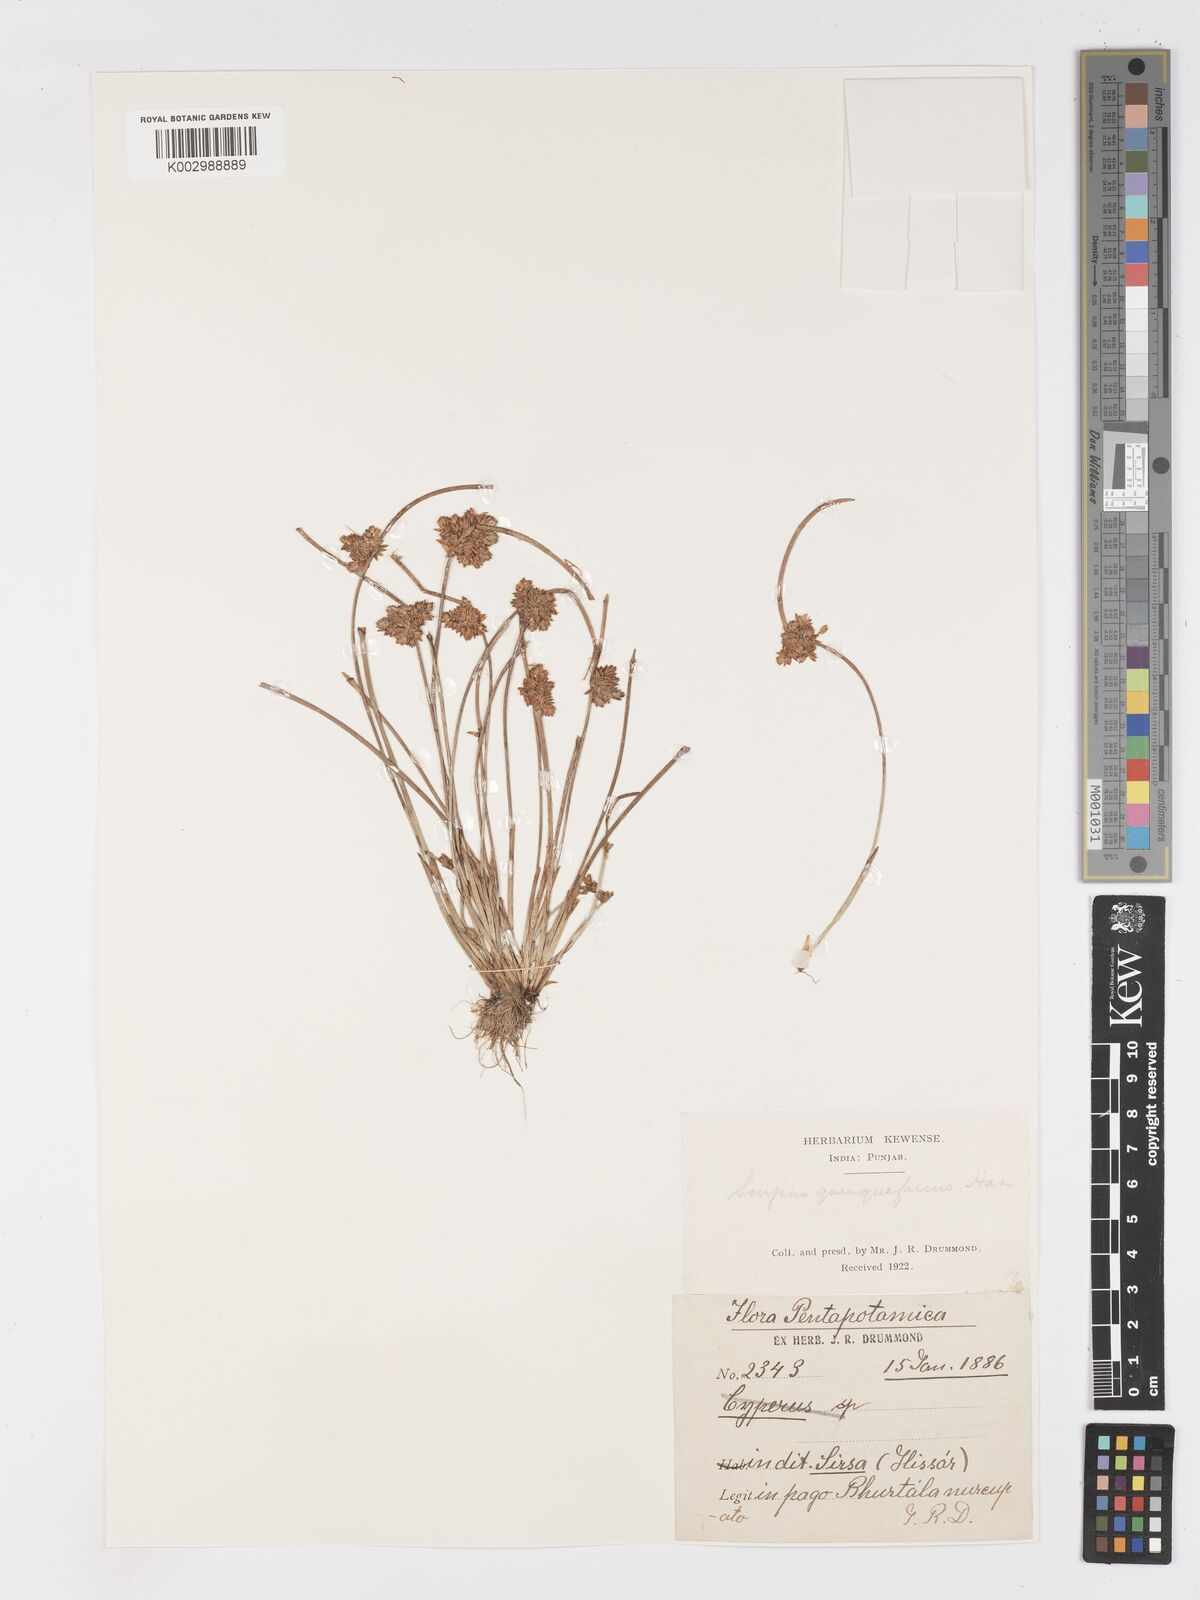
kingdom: Plantae
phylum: Tracheophyta
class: Liliopsida
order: Poales
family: Cyperaceae
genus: Schoenoplectiella
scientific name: Schoenoplectiella roylei
